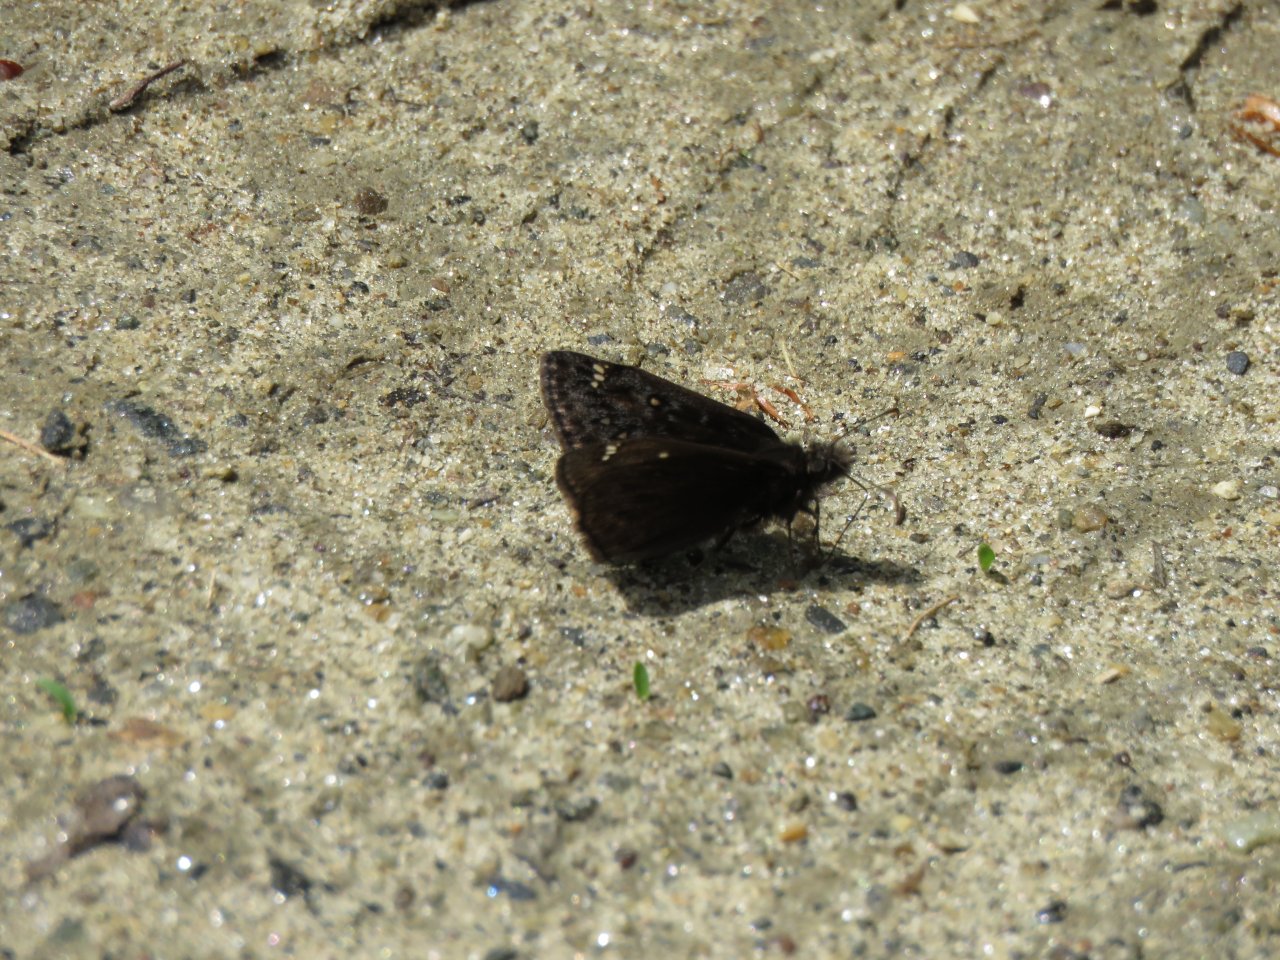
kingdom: Animalia
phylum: Arthropoda
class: Insecta
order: Lepidoptera
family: Hesperiidae
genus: Erynnis
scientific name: Erynnis icelus
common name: Dreamy Duskywing
